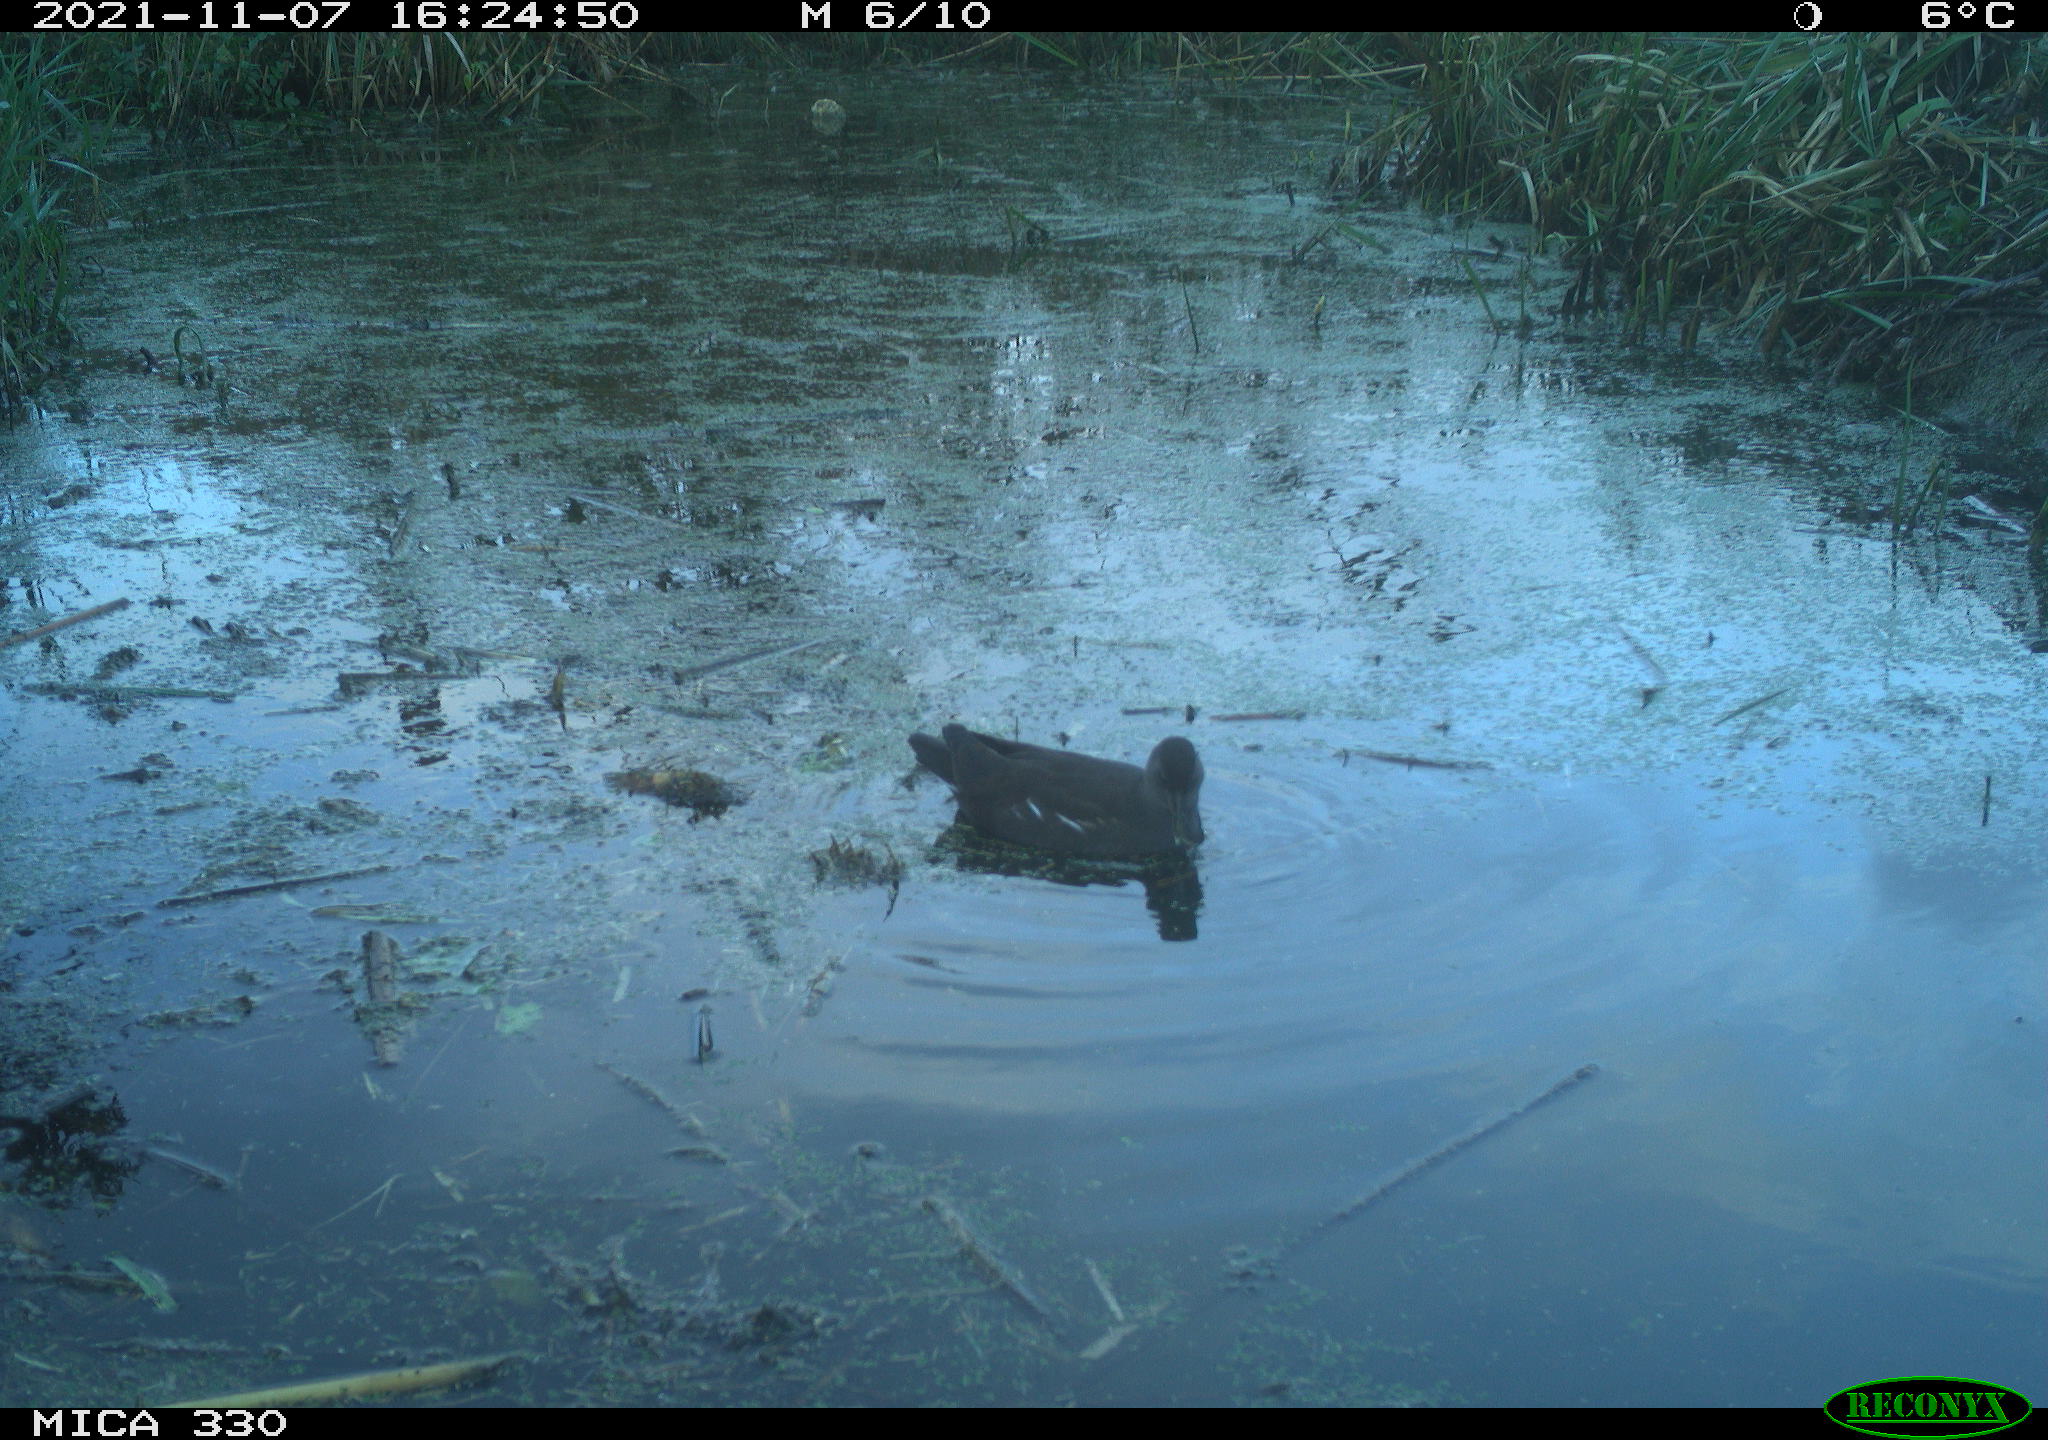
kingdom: Animalia
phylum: Chordata
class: Aves
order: Gruiformes
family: Rallidae
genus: Gallinula
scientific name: Gallinula chloropus
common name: Common moorhen
